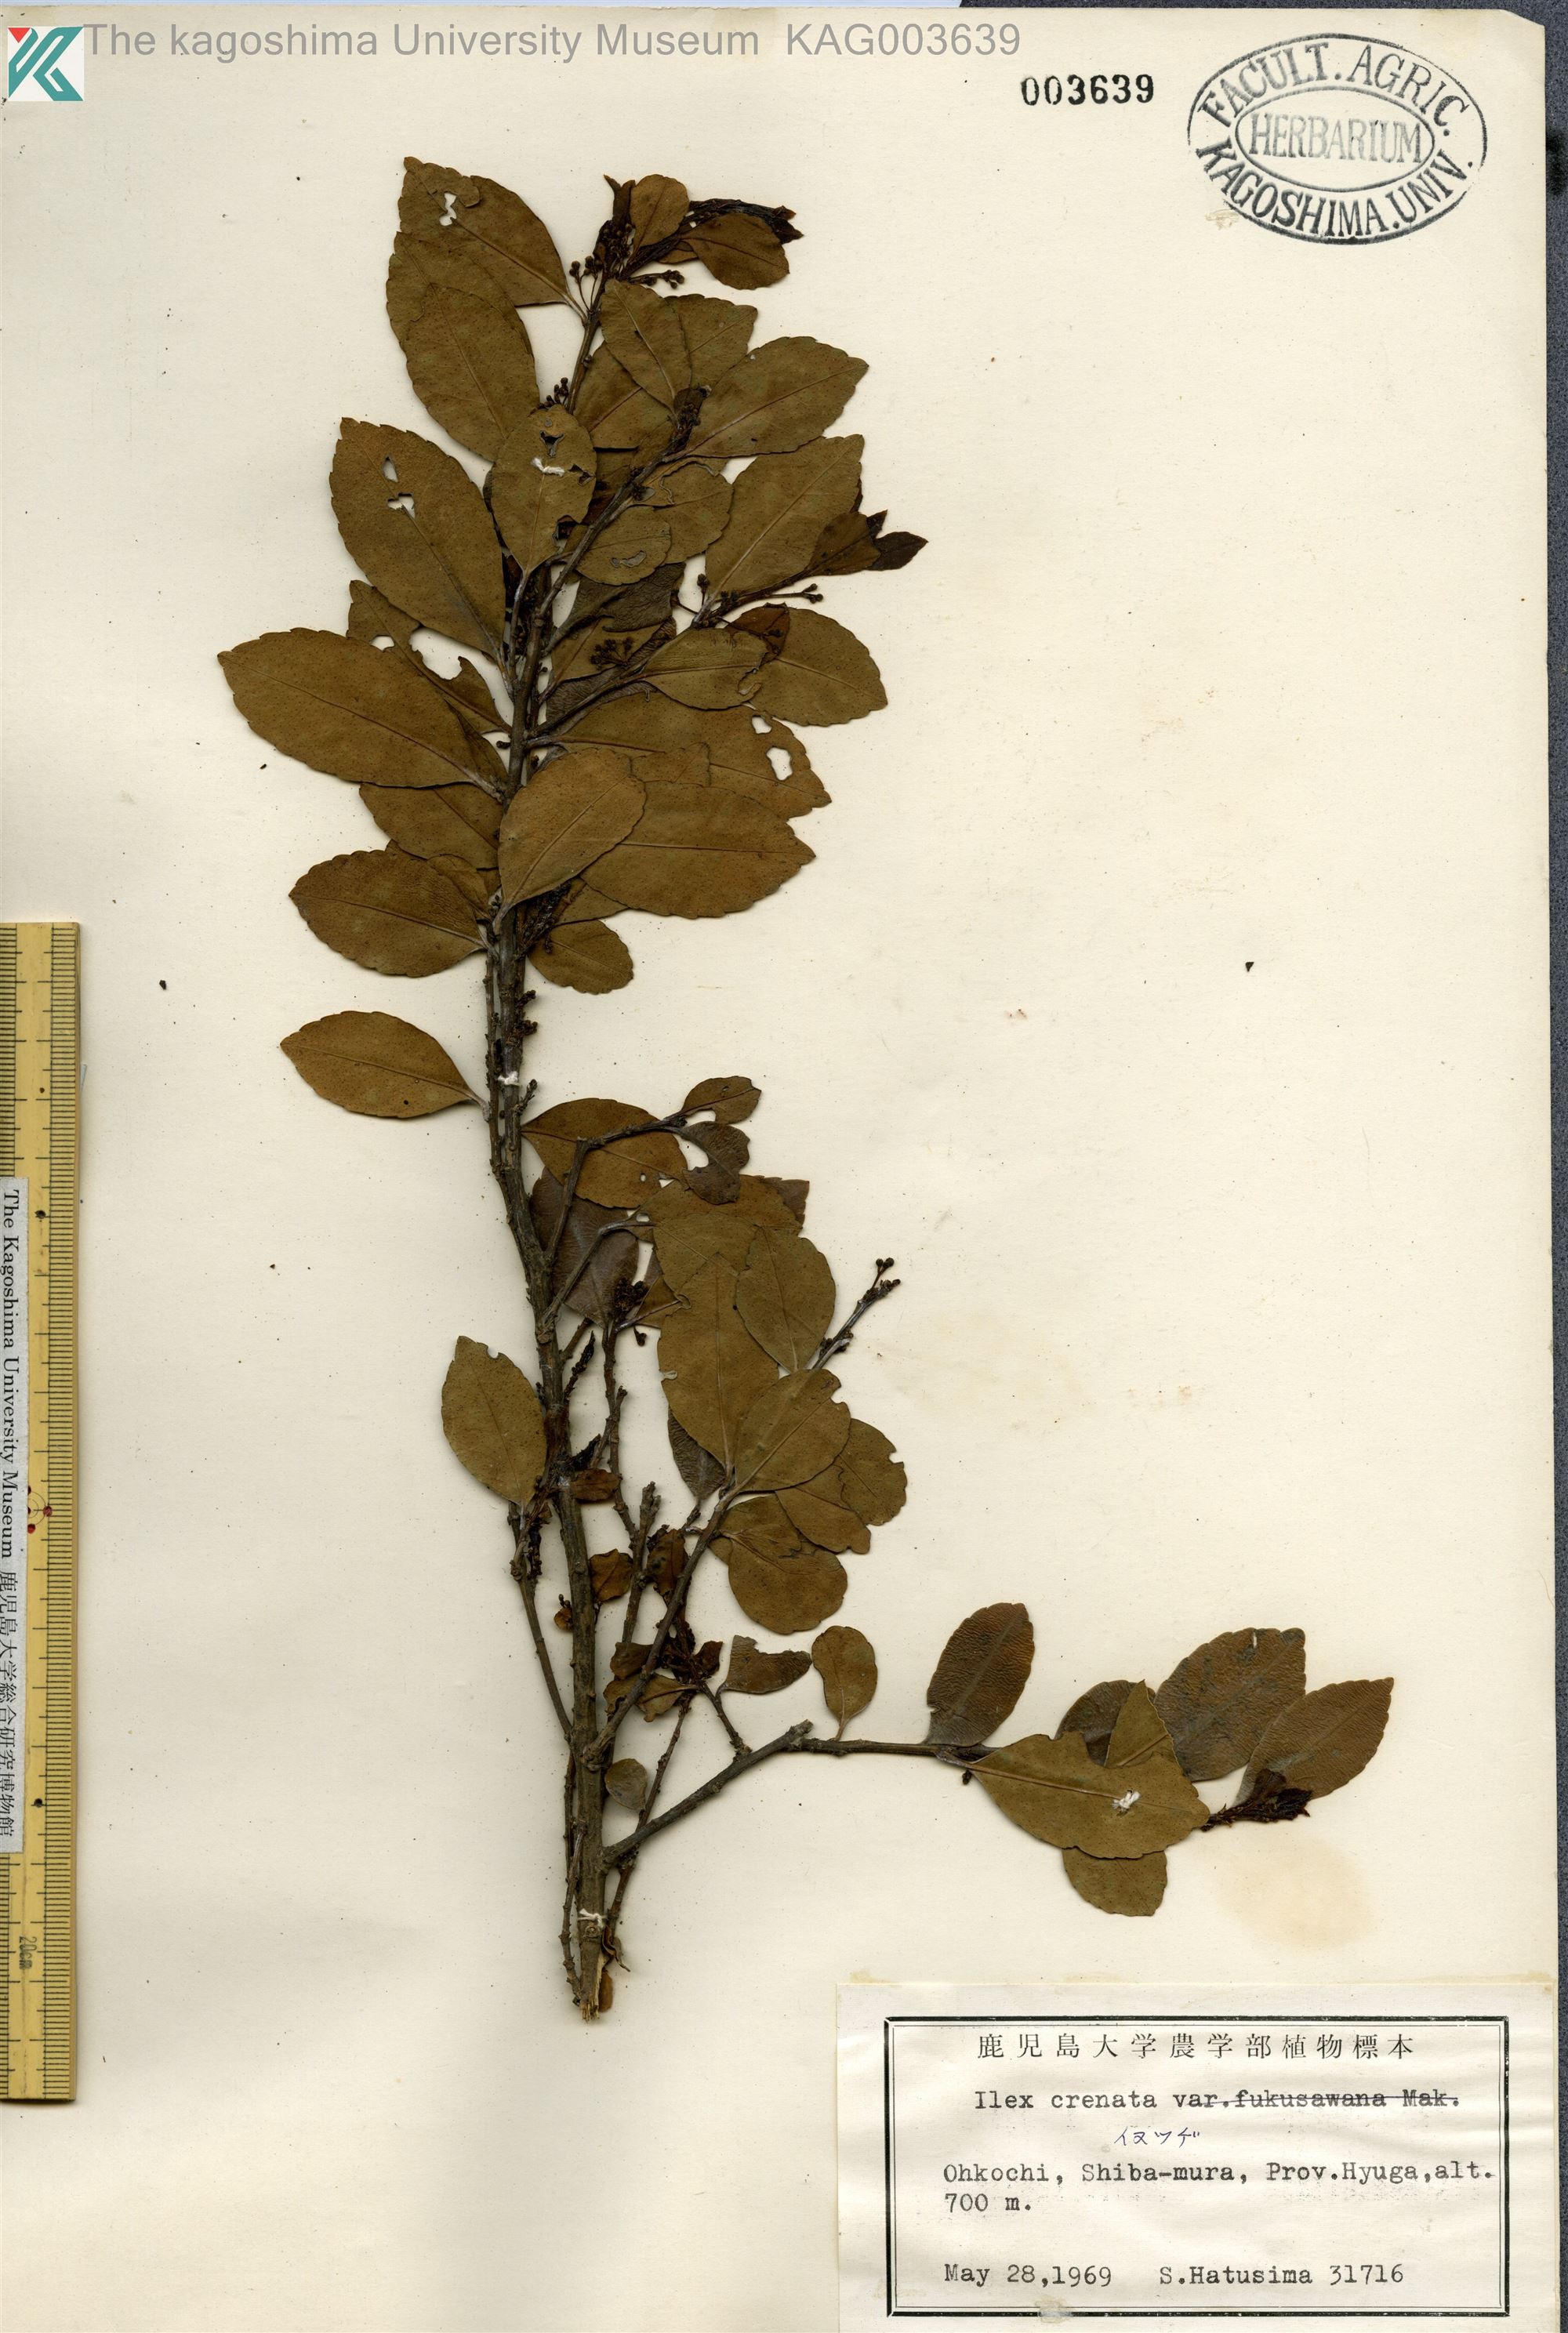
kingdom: Plantae
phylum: Tracheophyta
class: Magnoliopsida
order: Aquifoliales
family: Aquifoliaceae
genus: Ilex
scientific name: Ilex crenata
